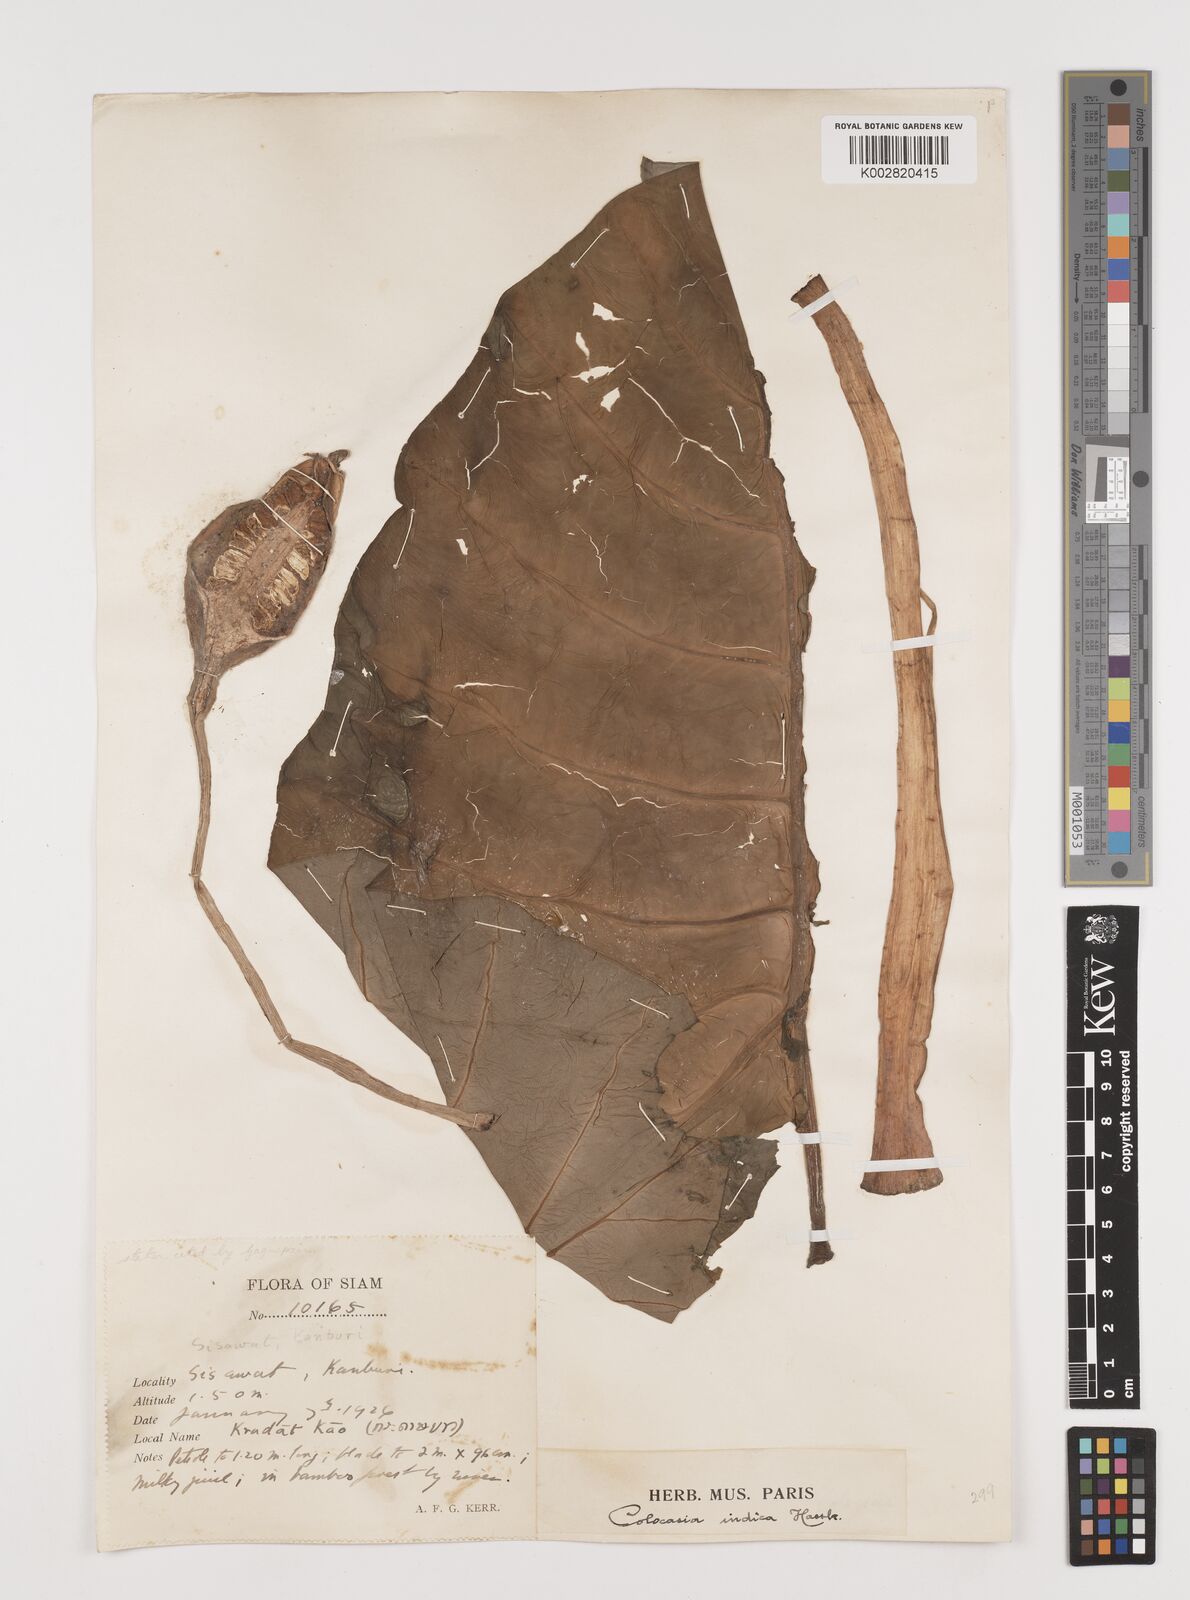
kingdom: Plantae
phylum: Tracheophyta
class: Liliopsida
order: Alismatales
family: Araceae
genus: Colocasia
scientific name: Colocasia esculenta
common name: Taro
